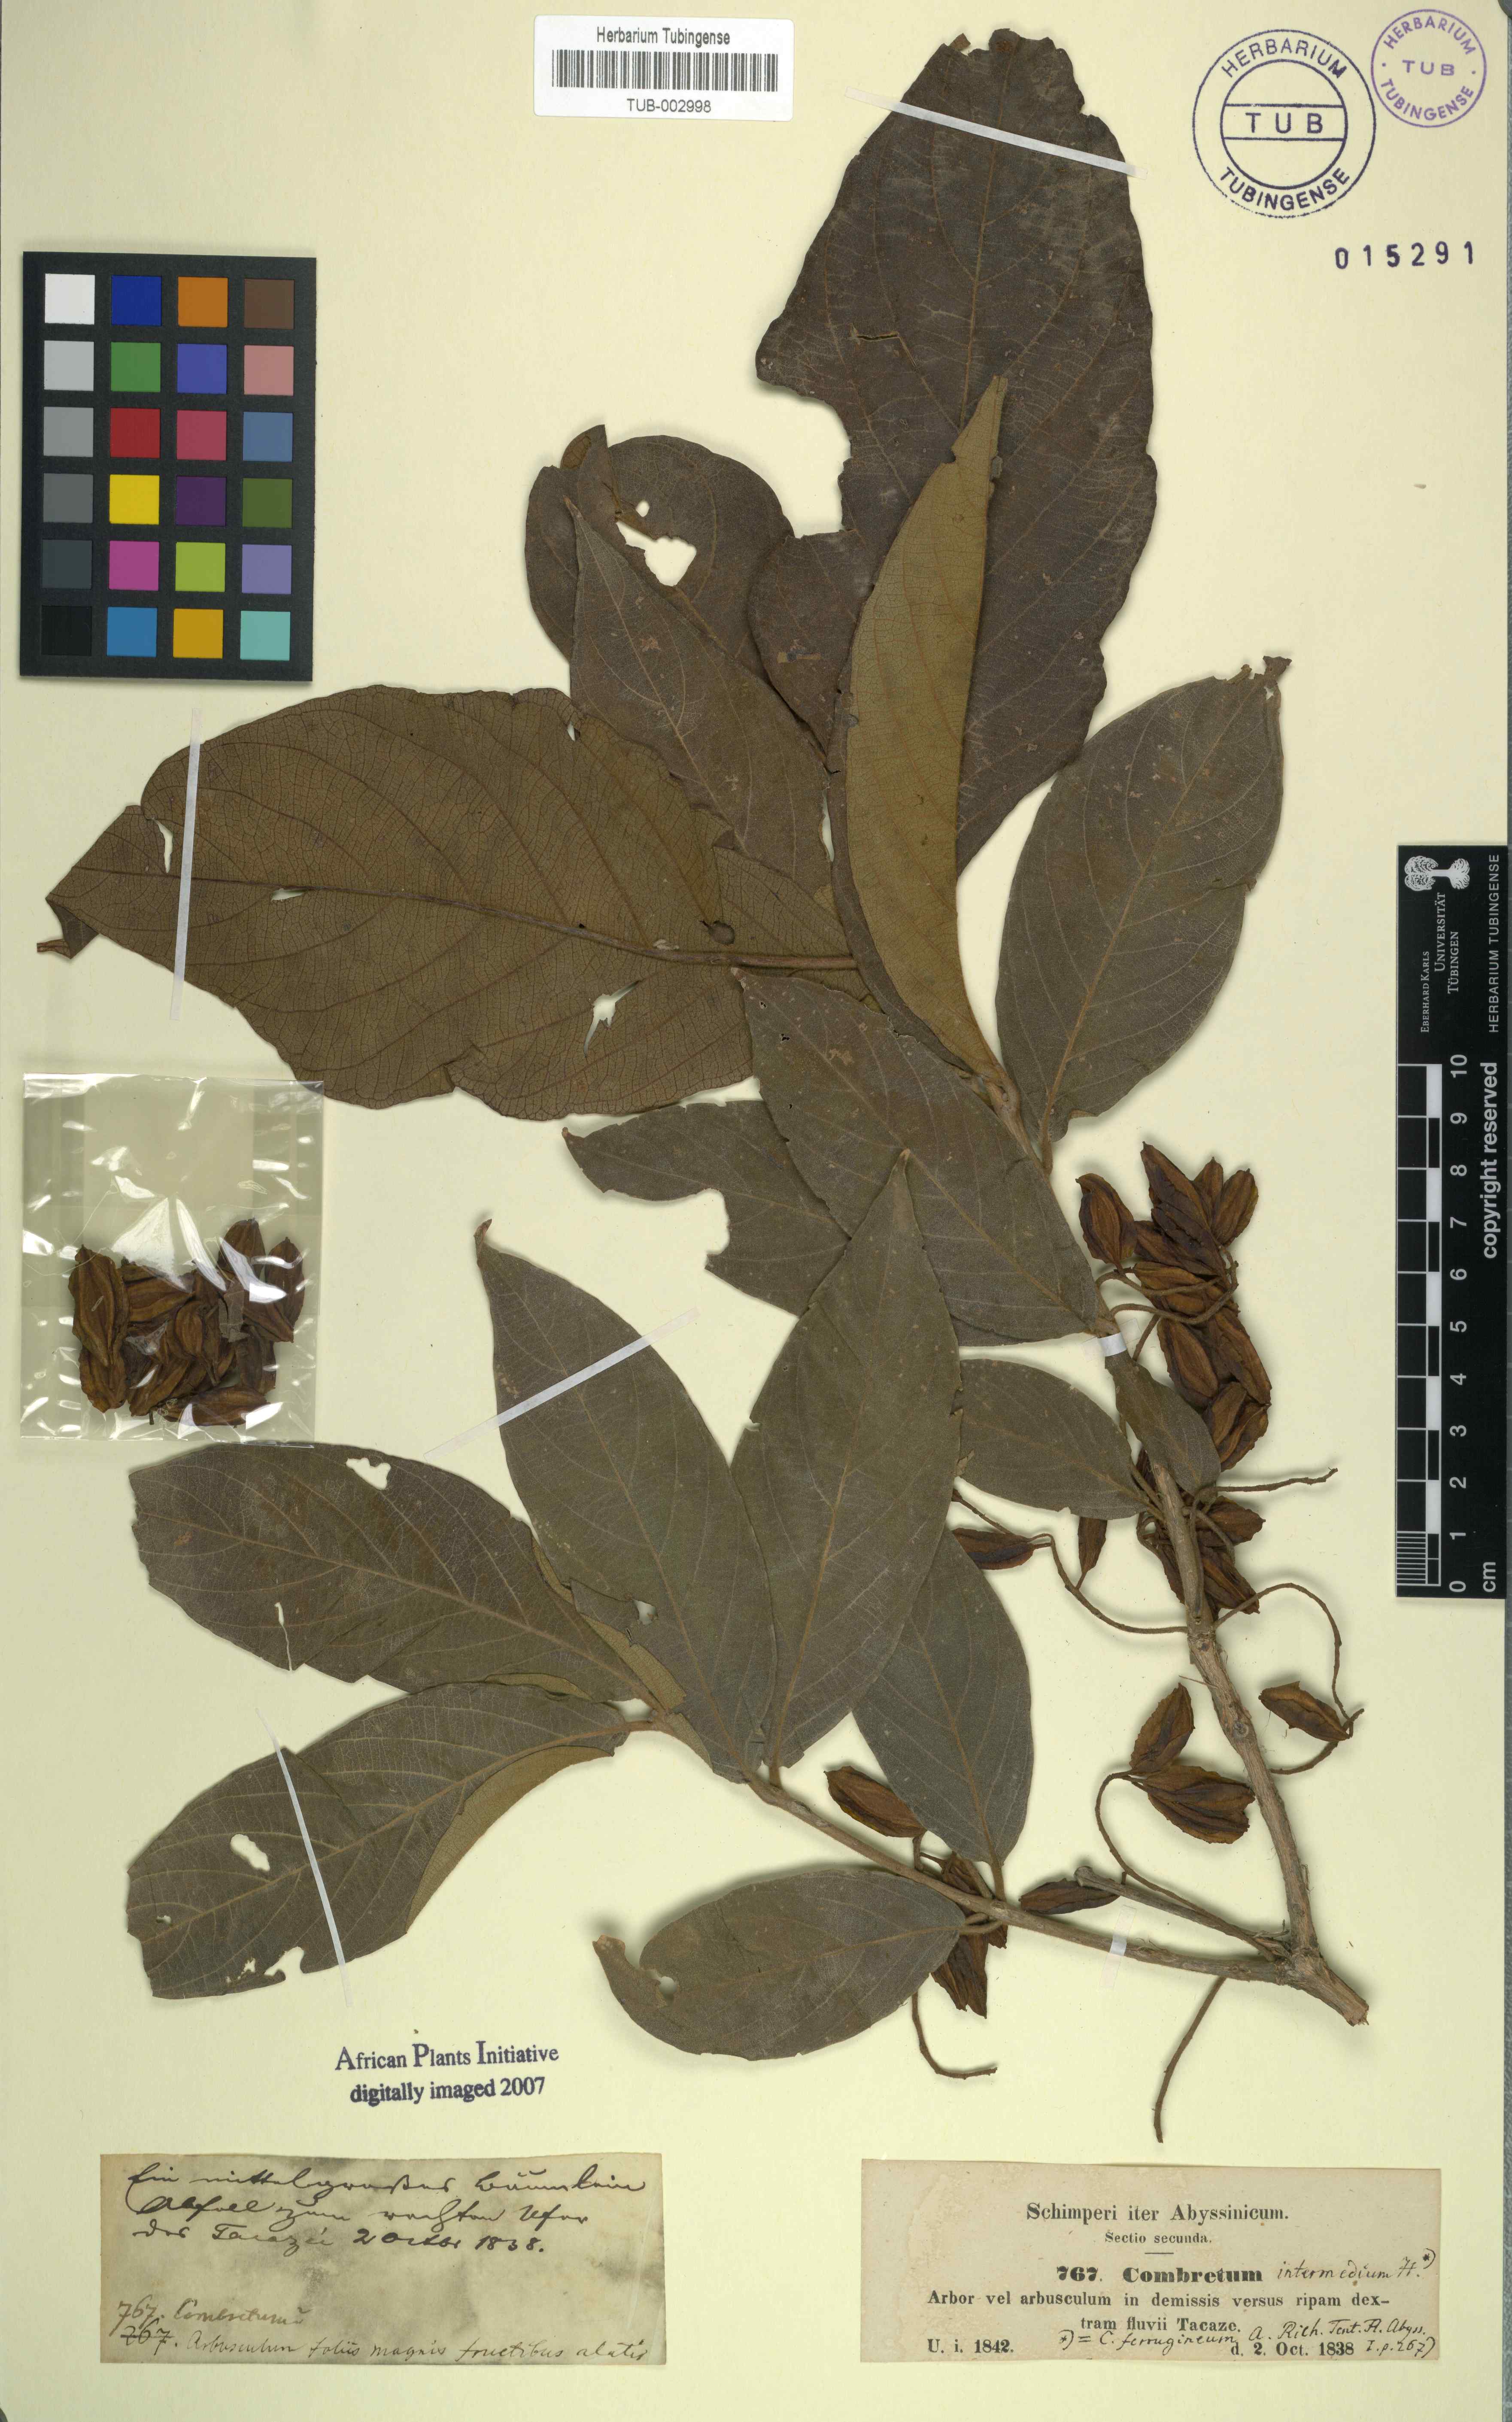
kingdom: Plantae
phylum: Tracheophyta
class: Magnoliopsida
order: Myrtales
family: Combretaceae
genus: Combretum
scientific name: Combretum molle
